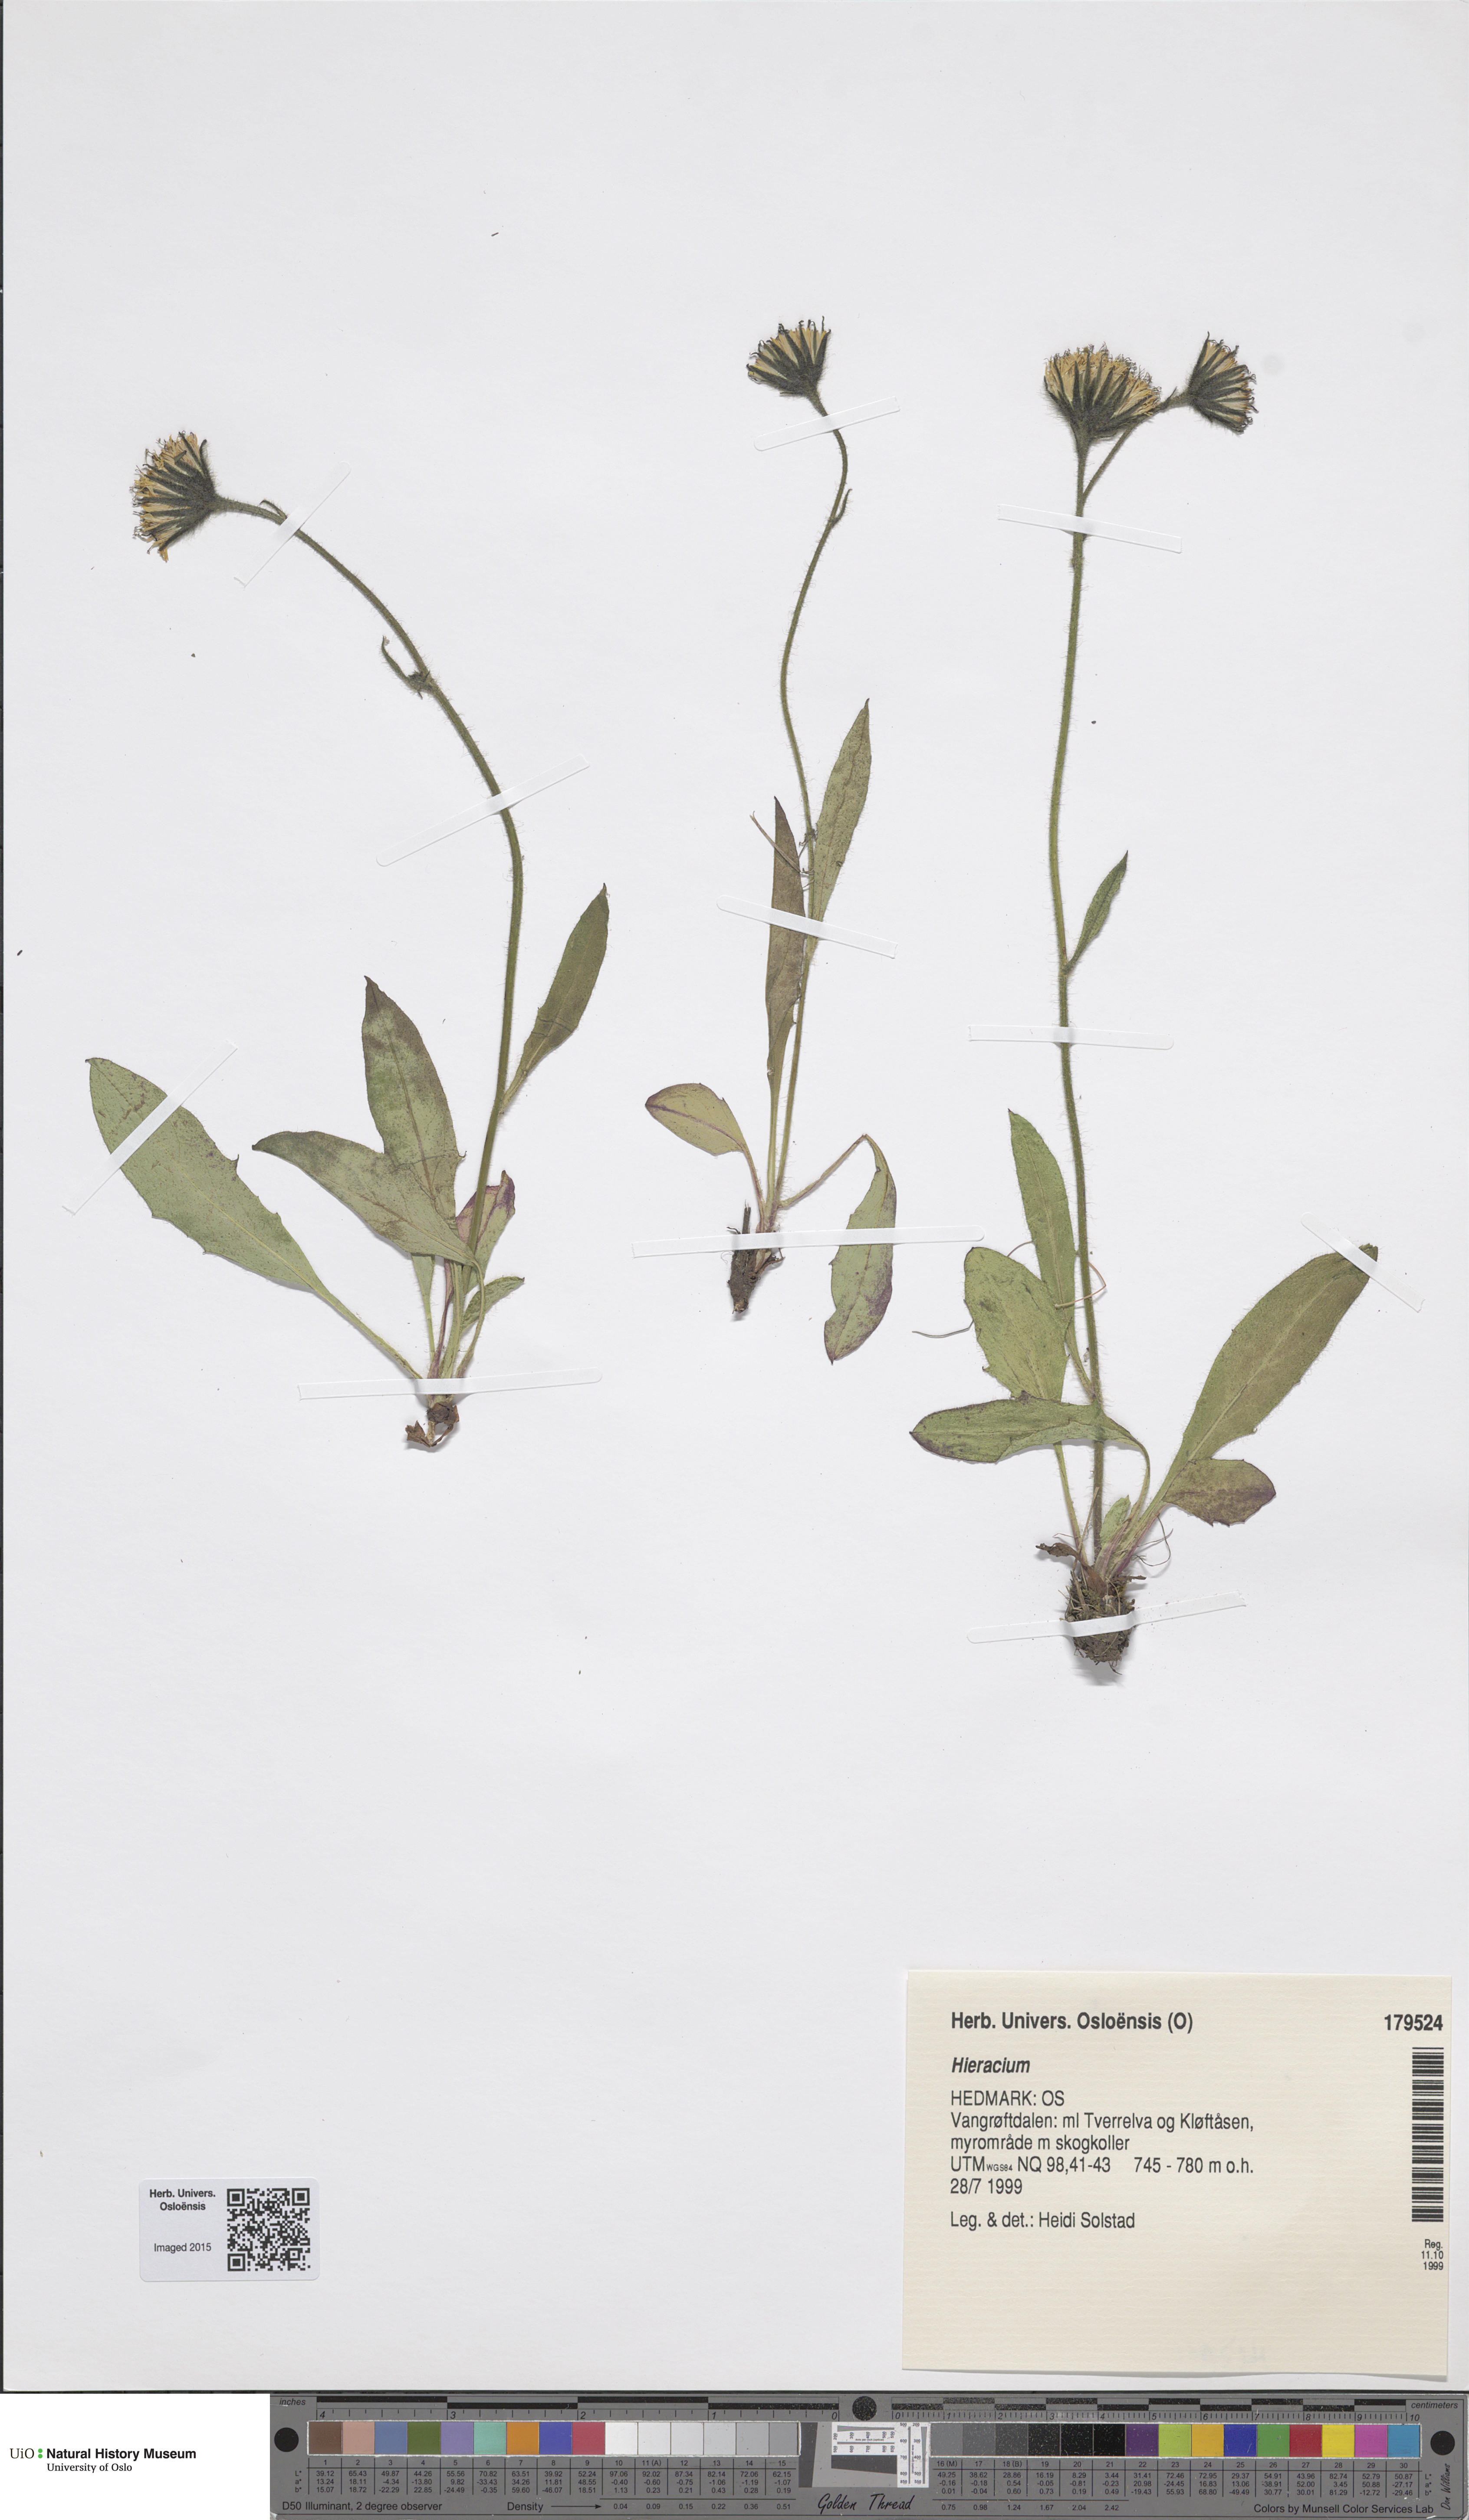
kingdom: Plantae
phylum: Tracheophyta
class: Magnoliopsida
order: Asterales
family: Asteraceae
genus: Hieracium
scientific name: Hieracium
